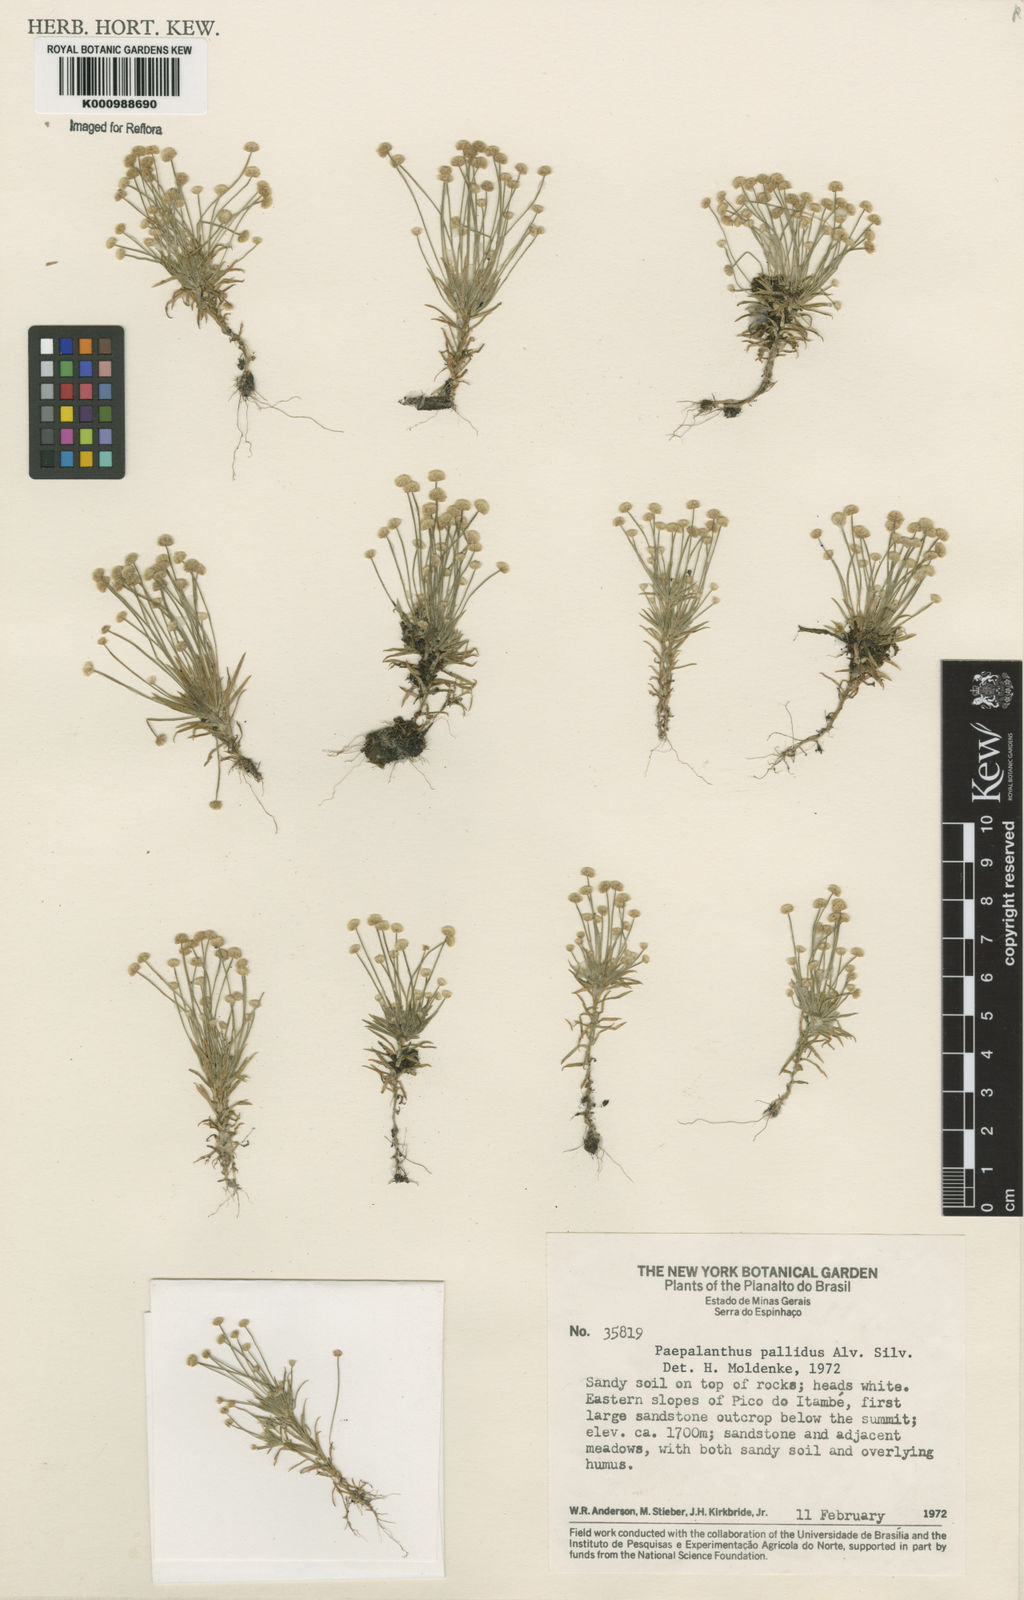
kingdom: Plantae
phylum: Tracheophyta
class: Liliopsida
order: Poales
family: Eriocaulaceae
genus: Paepalanthus
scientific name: Paepalanthus pallidus
